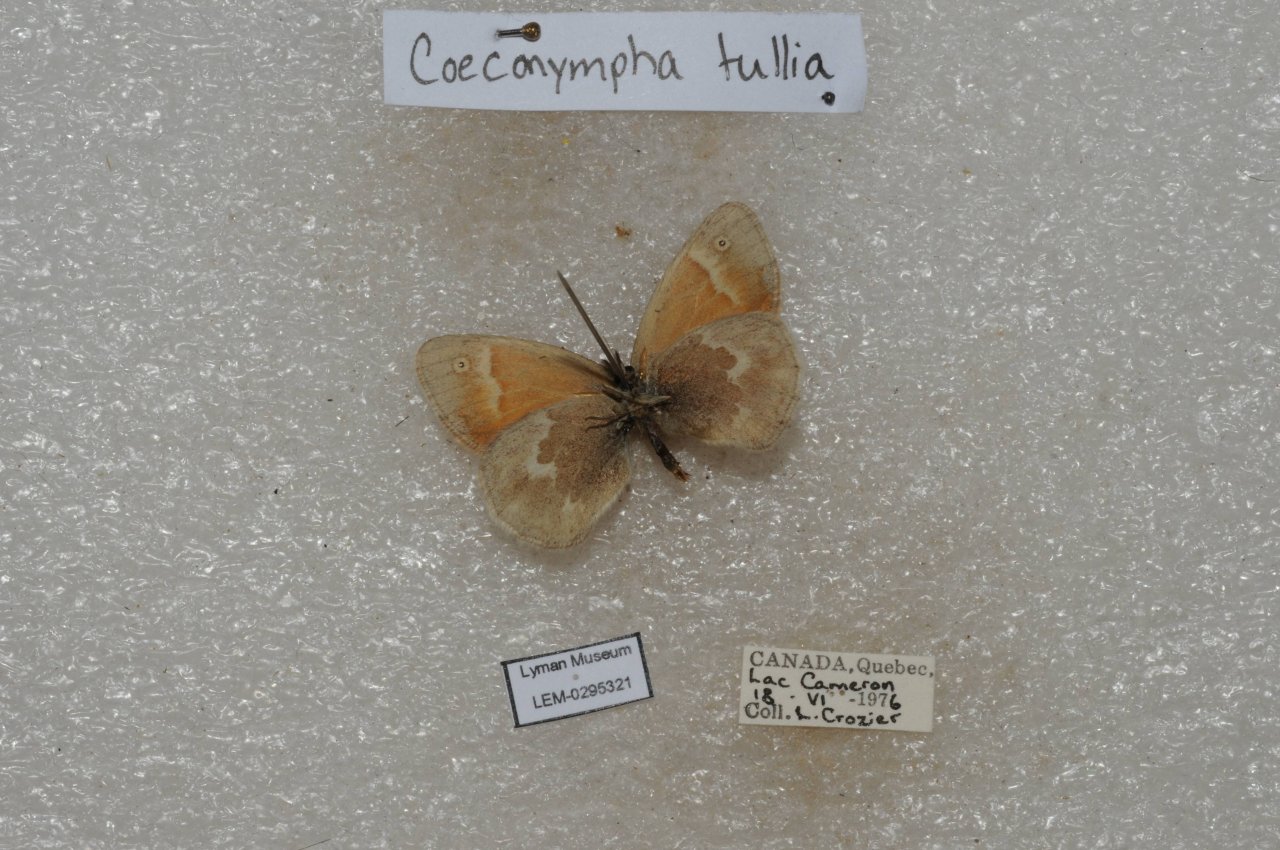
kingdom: Animalia
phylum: Arthropoda
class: Insecta
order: Lepidoptera
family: Nymphalidae
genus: Coenonympha
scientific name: Coenonympha tullia
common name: Large Heath
